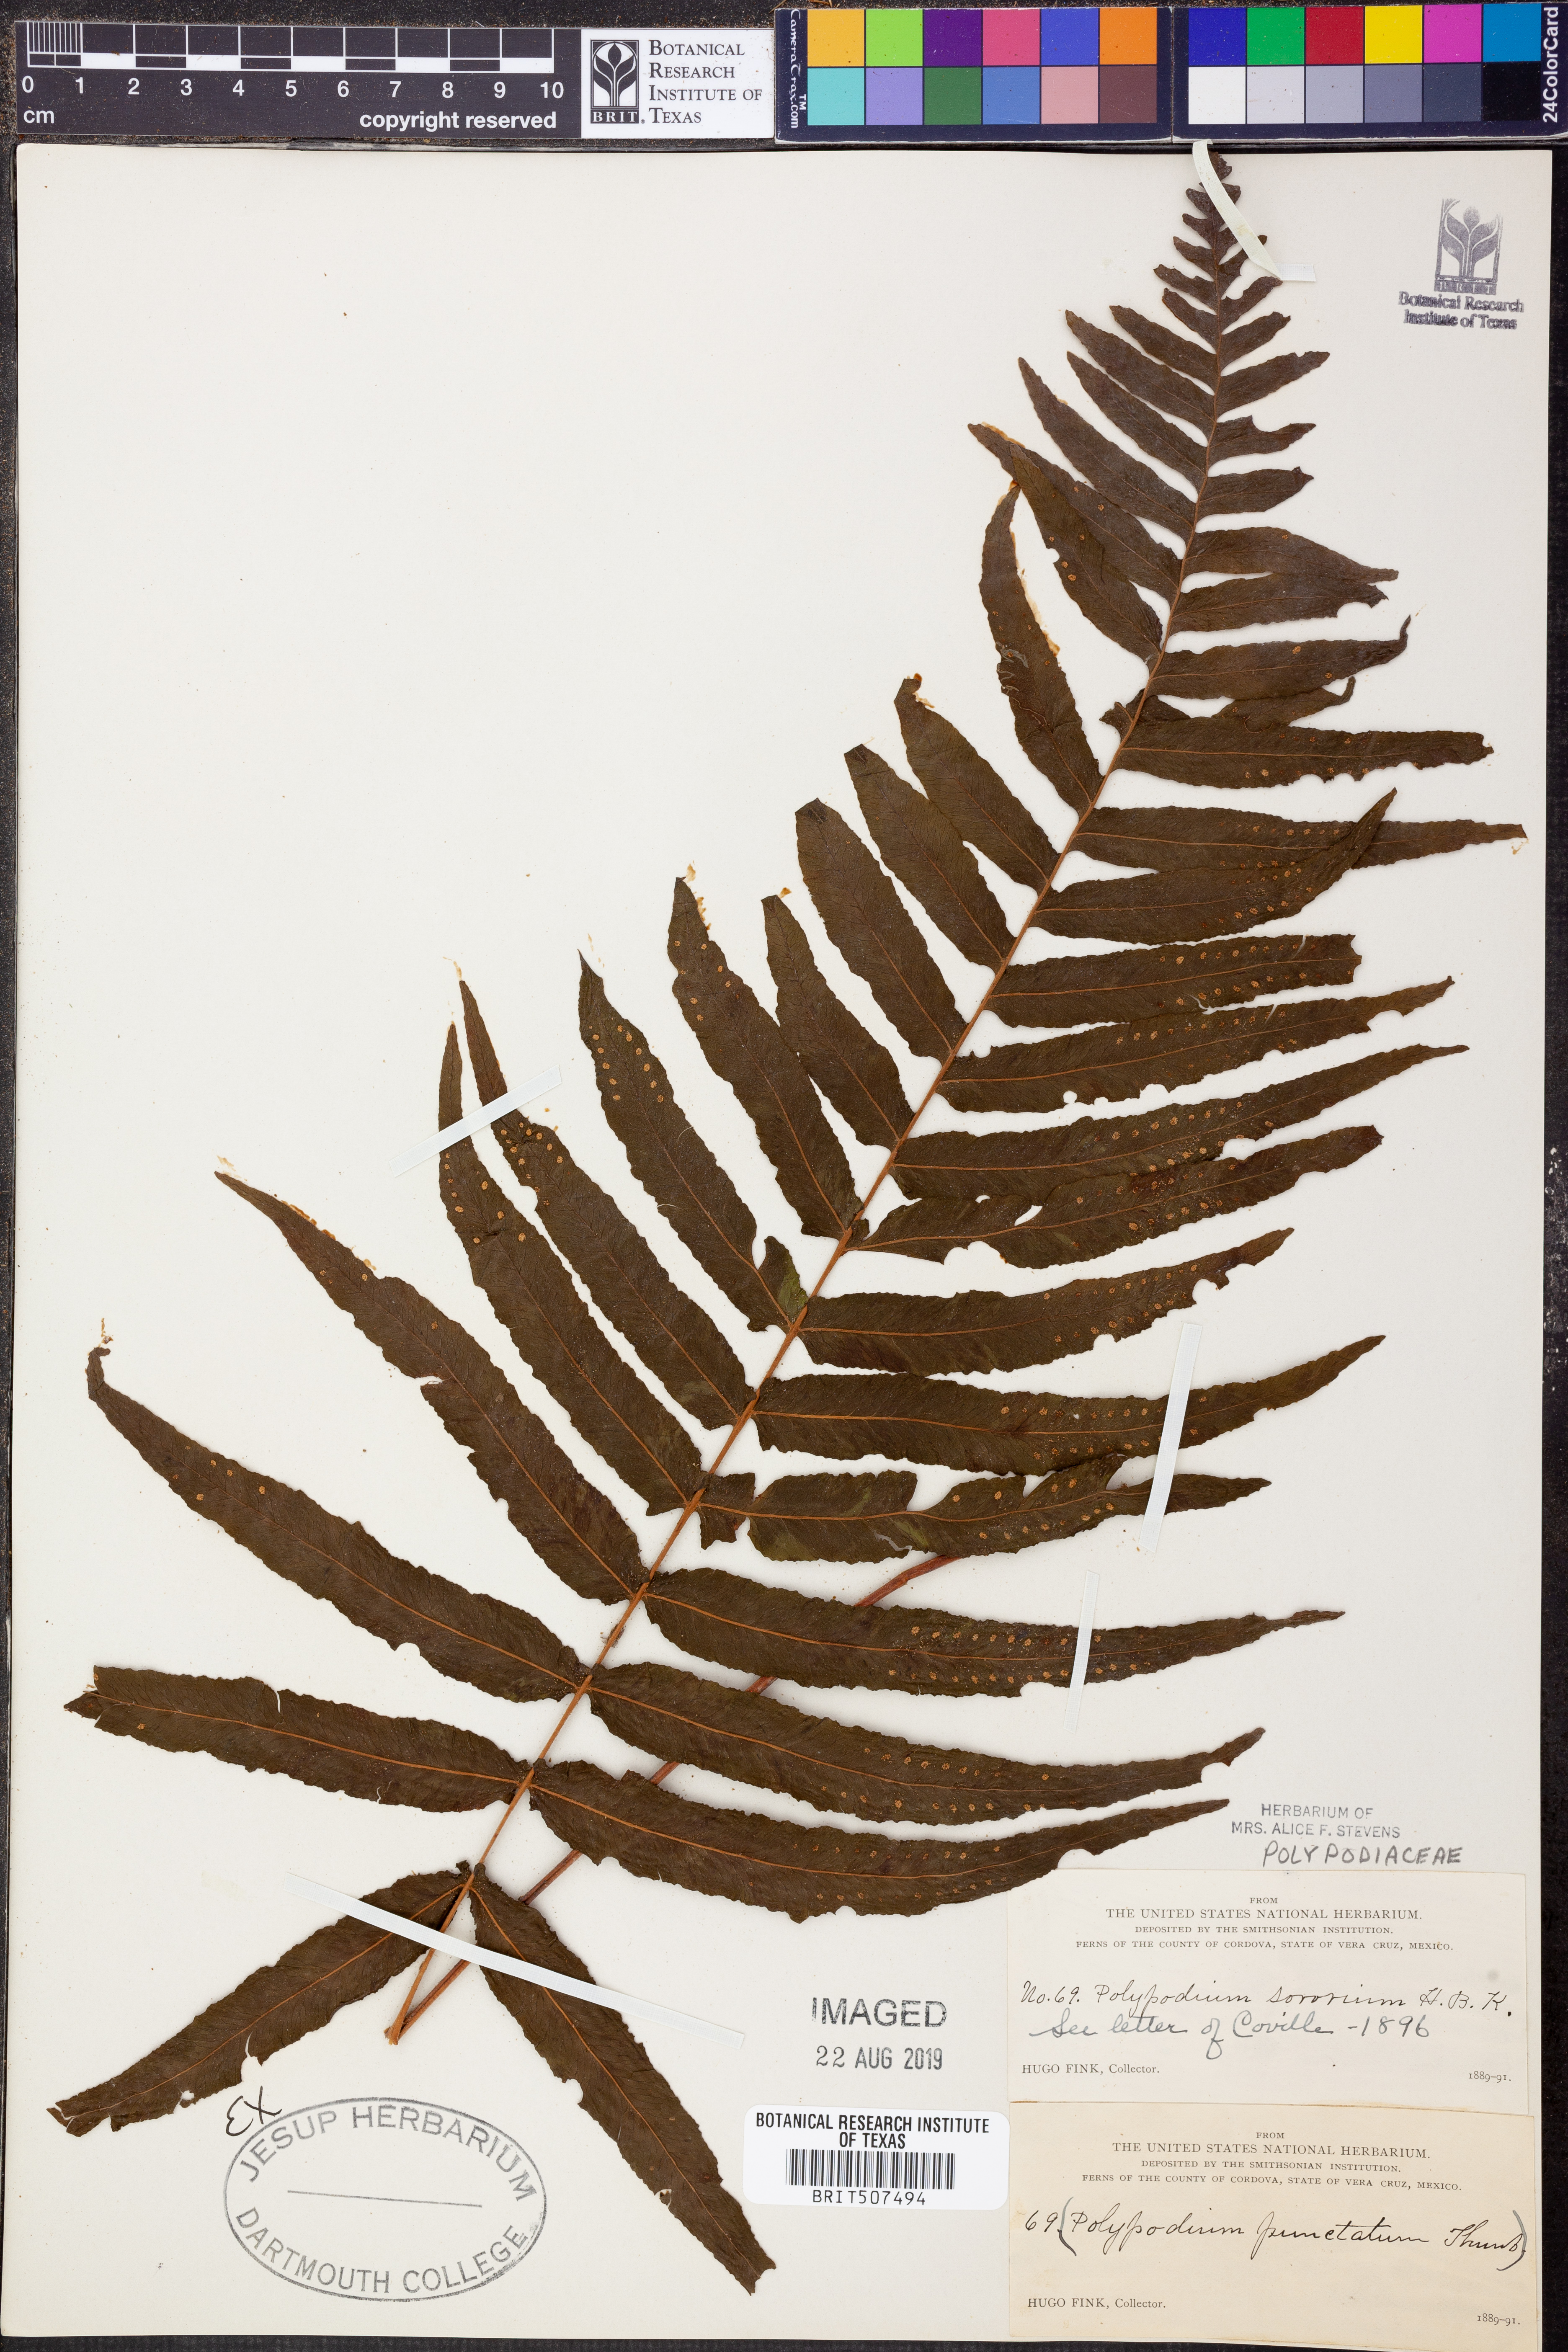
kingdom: Plantae
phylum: Tracheophyta
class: Polypodiopsida
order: Polypodiales
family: Polypodiaceae
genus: Pecluma
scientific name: Pecluma dulcis
